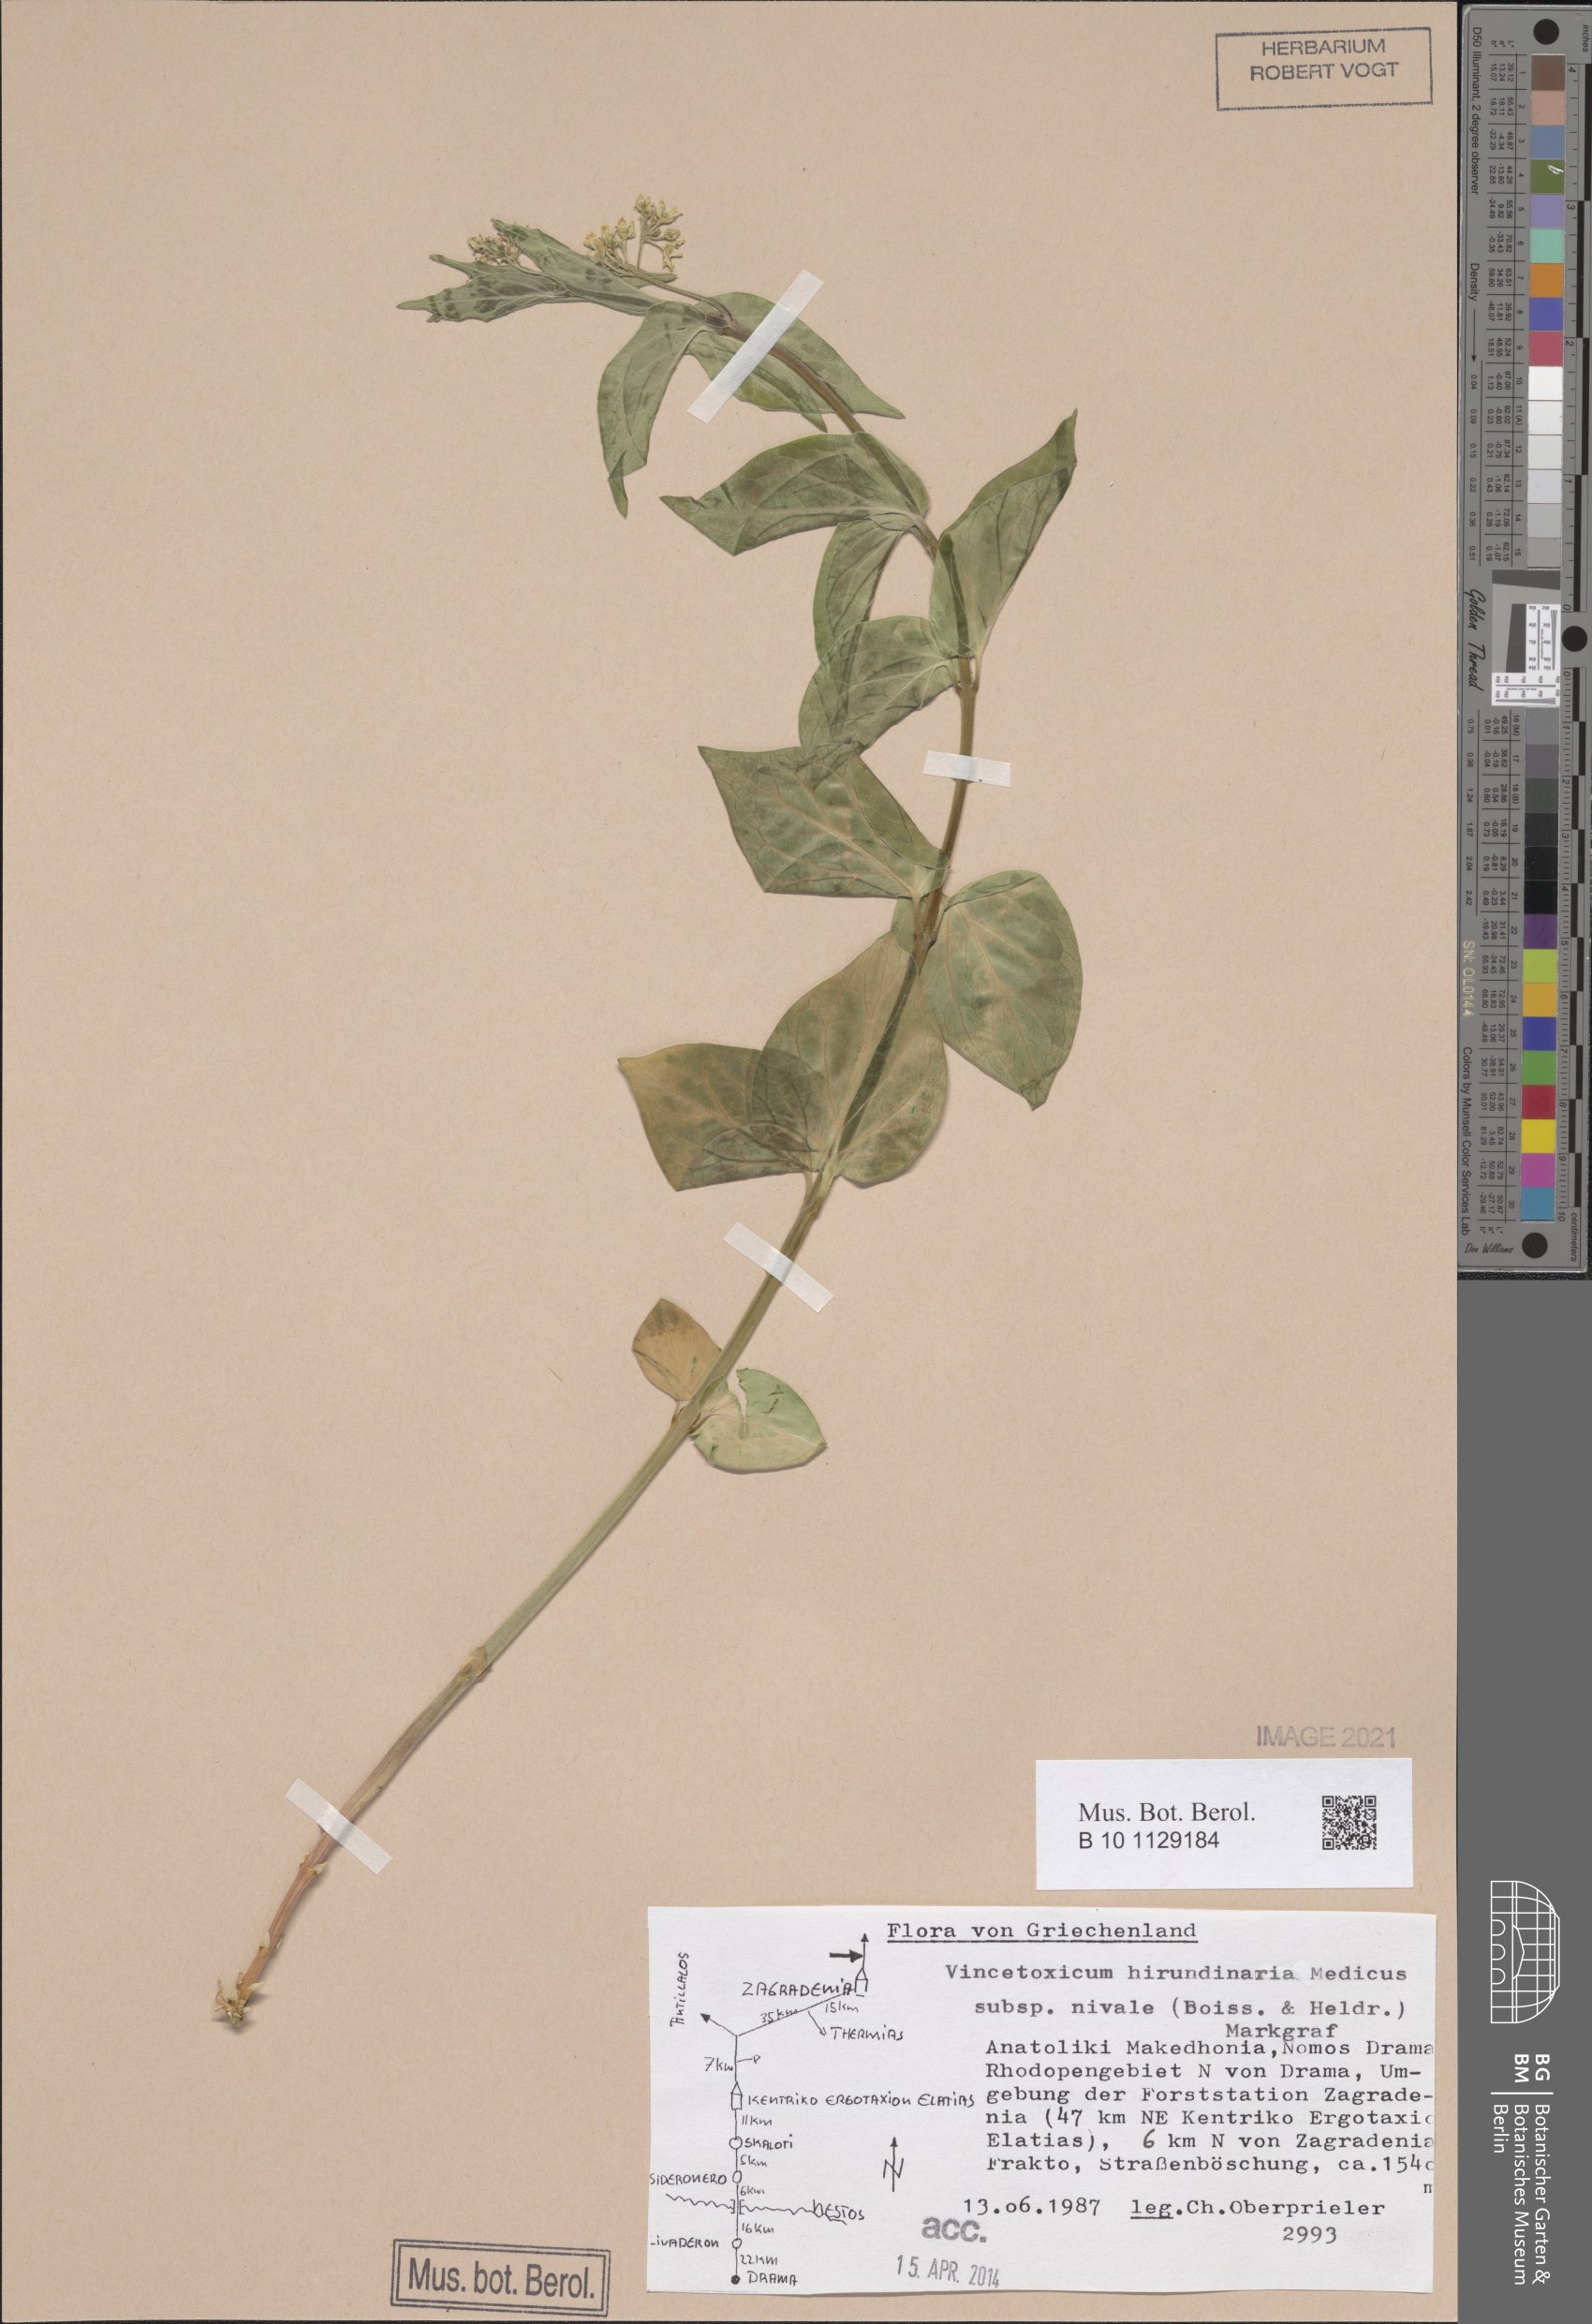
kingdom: Plantae
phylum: Tracheophyta
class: Magnoliopsida
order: Gentianales
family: Apocynaceae
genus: Vincetoxicum
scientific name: Vincetoxicum hirundinaria
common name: White swallowwort
